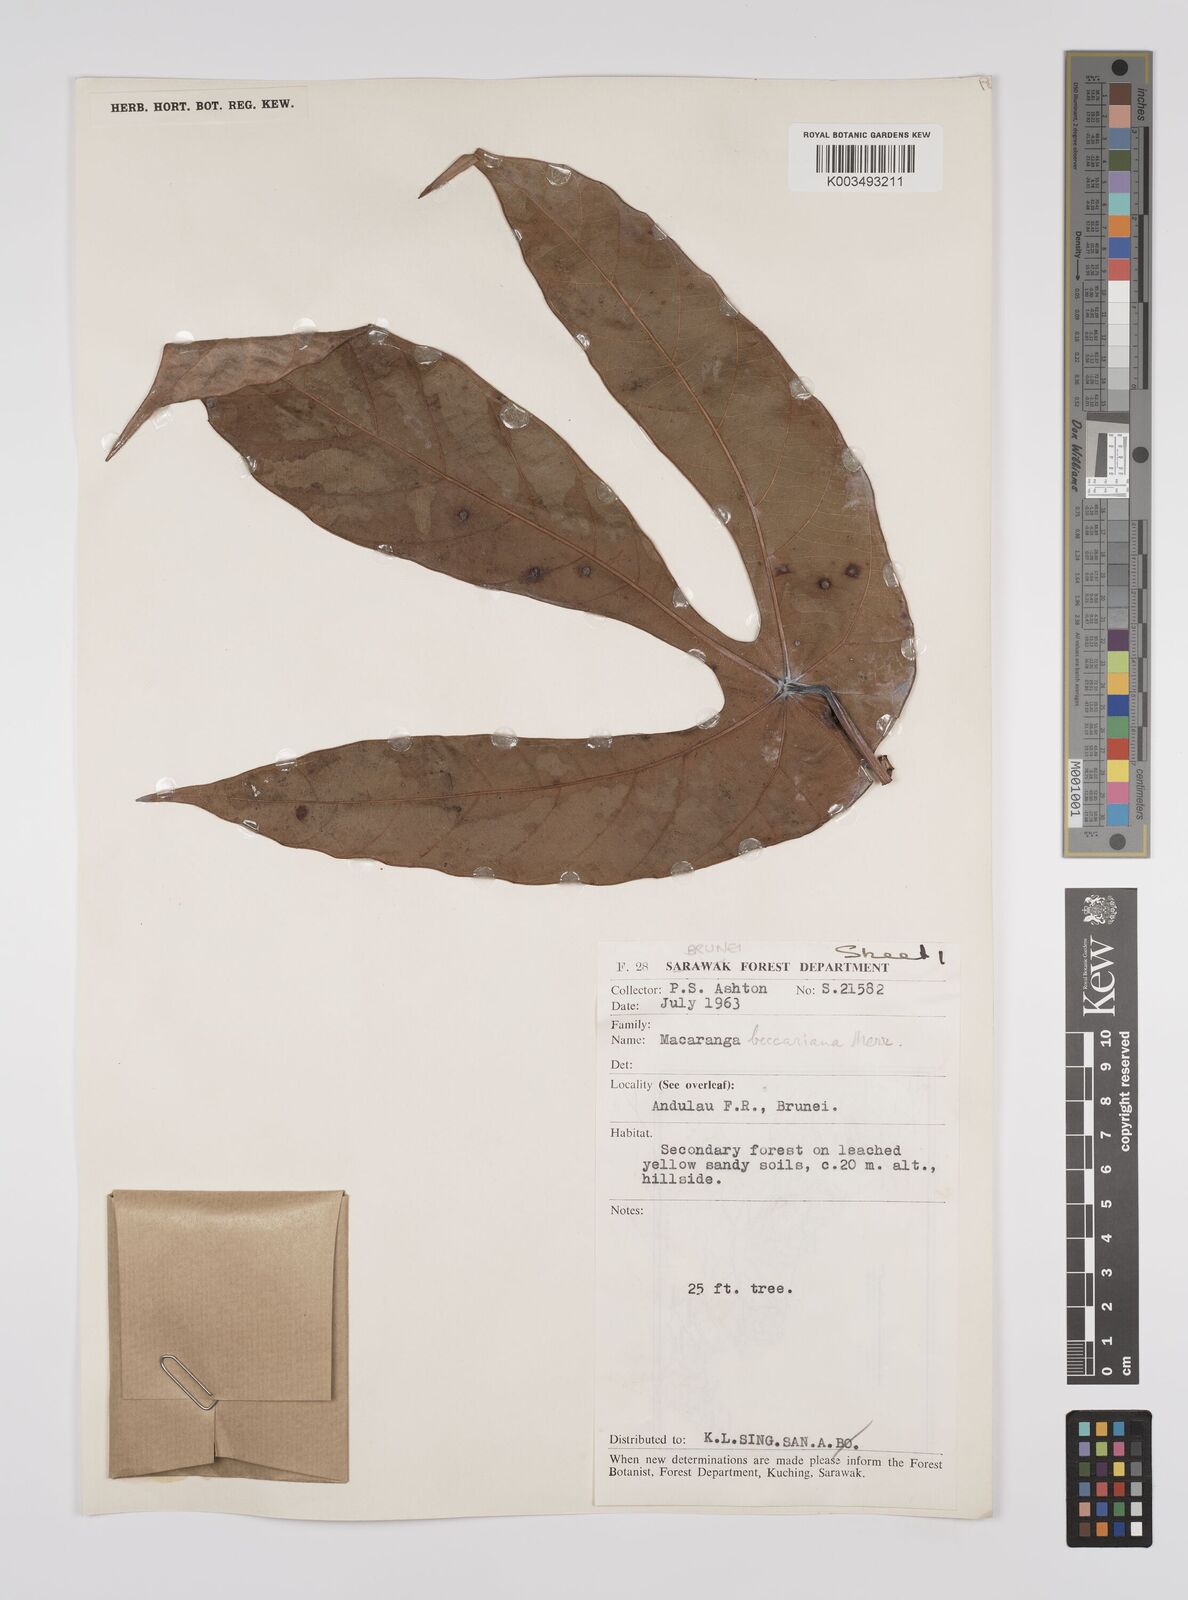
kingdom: Plantae
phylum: Tracheophyta
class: Magnoliopsida
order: Malpighiales
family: Euphorbiaceae
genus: Macaranga
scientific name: Macaranga beccariana
